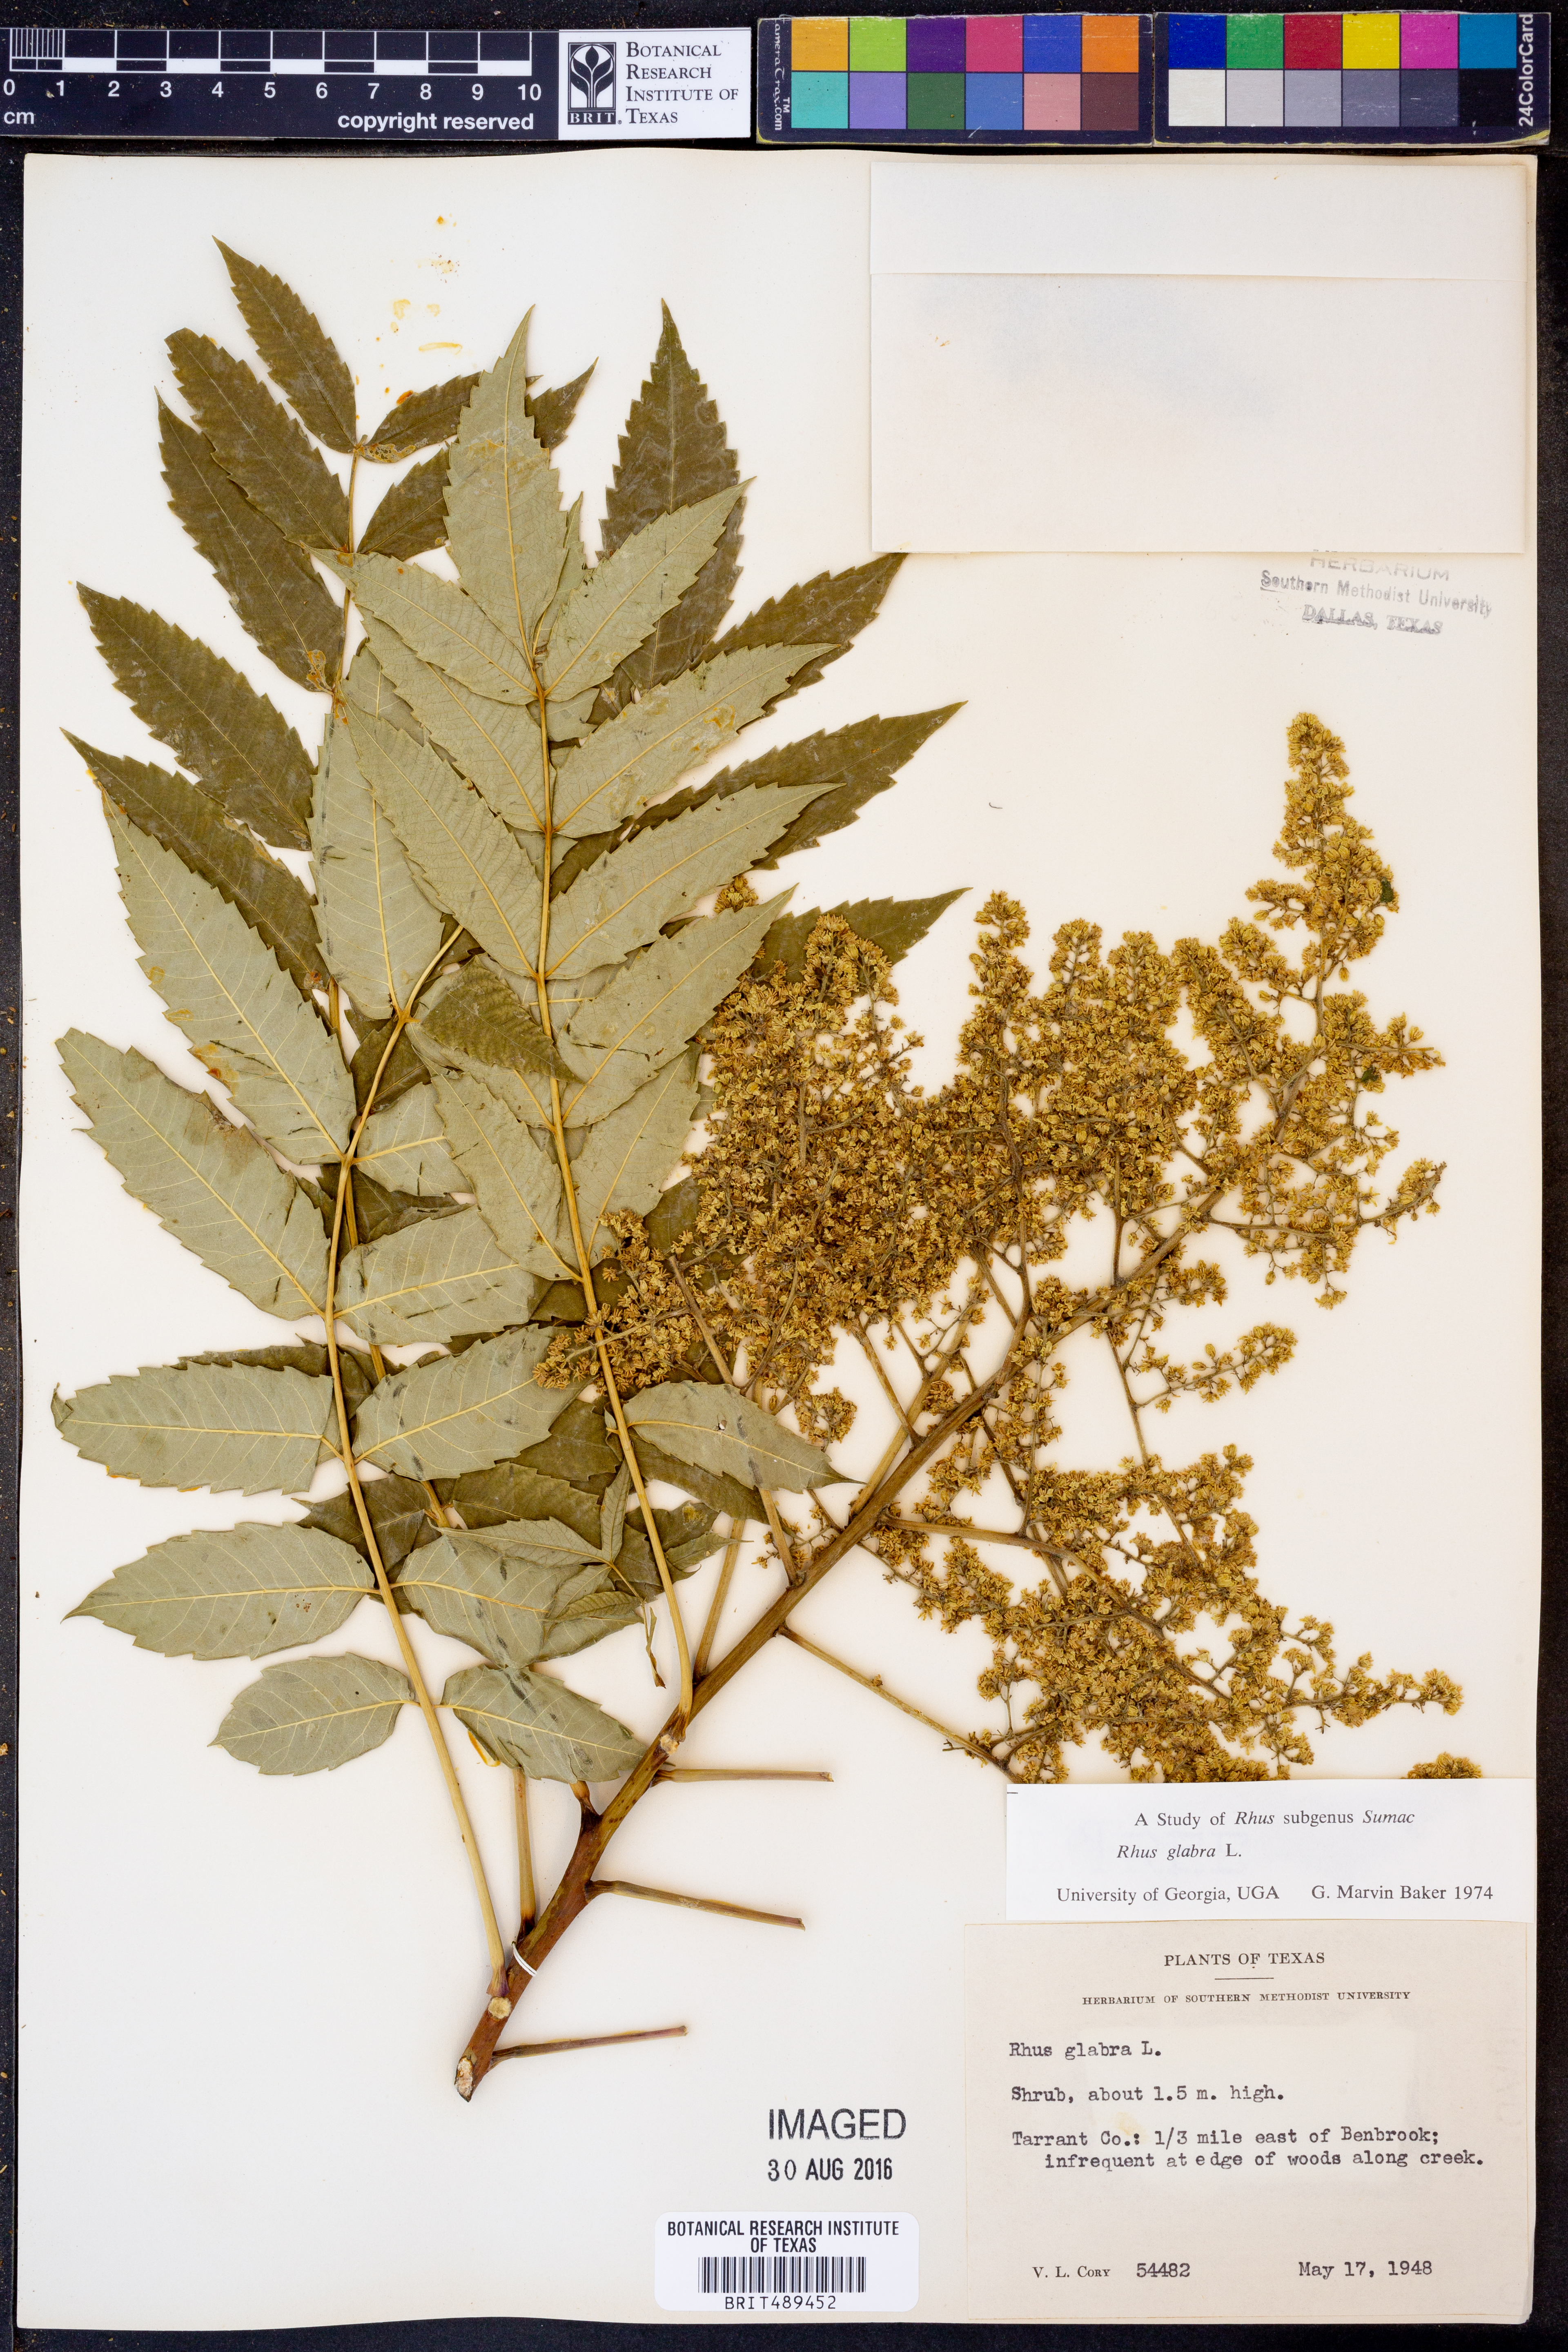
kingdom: Plantae
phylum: Tracheophyta
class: Magnoliopsida
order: Sapindales
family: Anacardiaceae
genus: Rhus
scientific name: Rhus glabra
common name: Scarlet sumac
